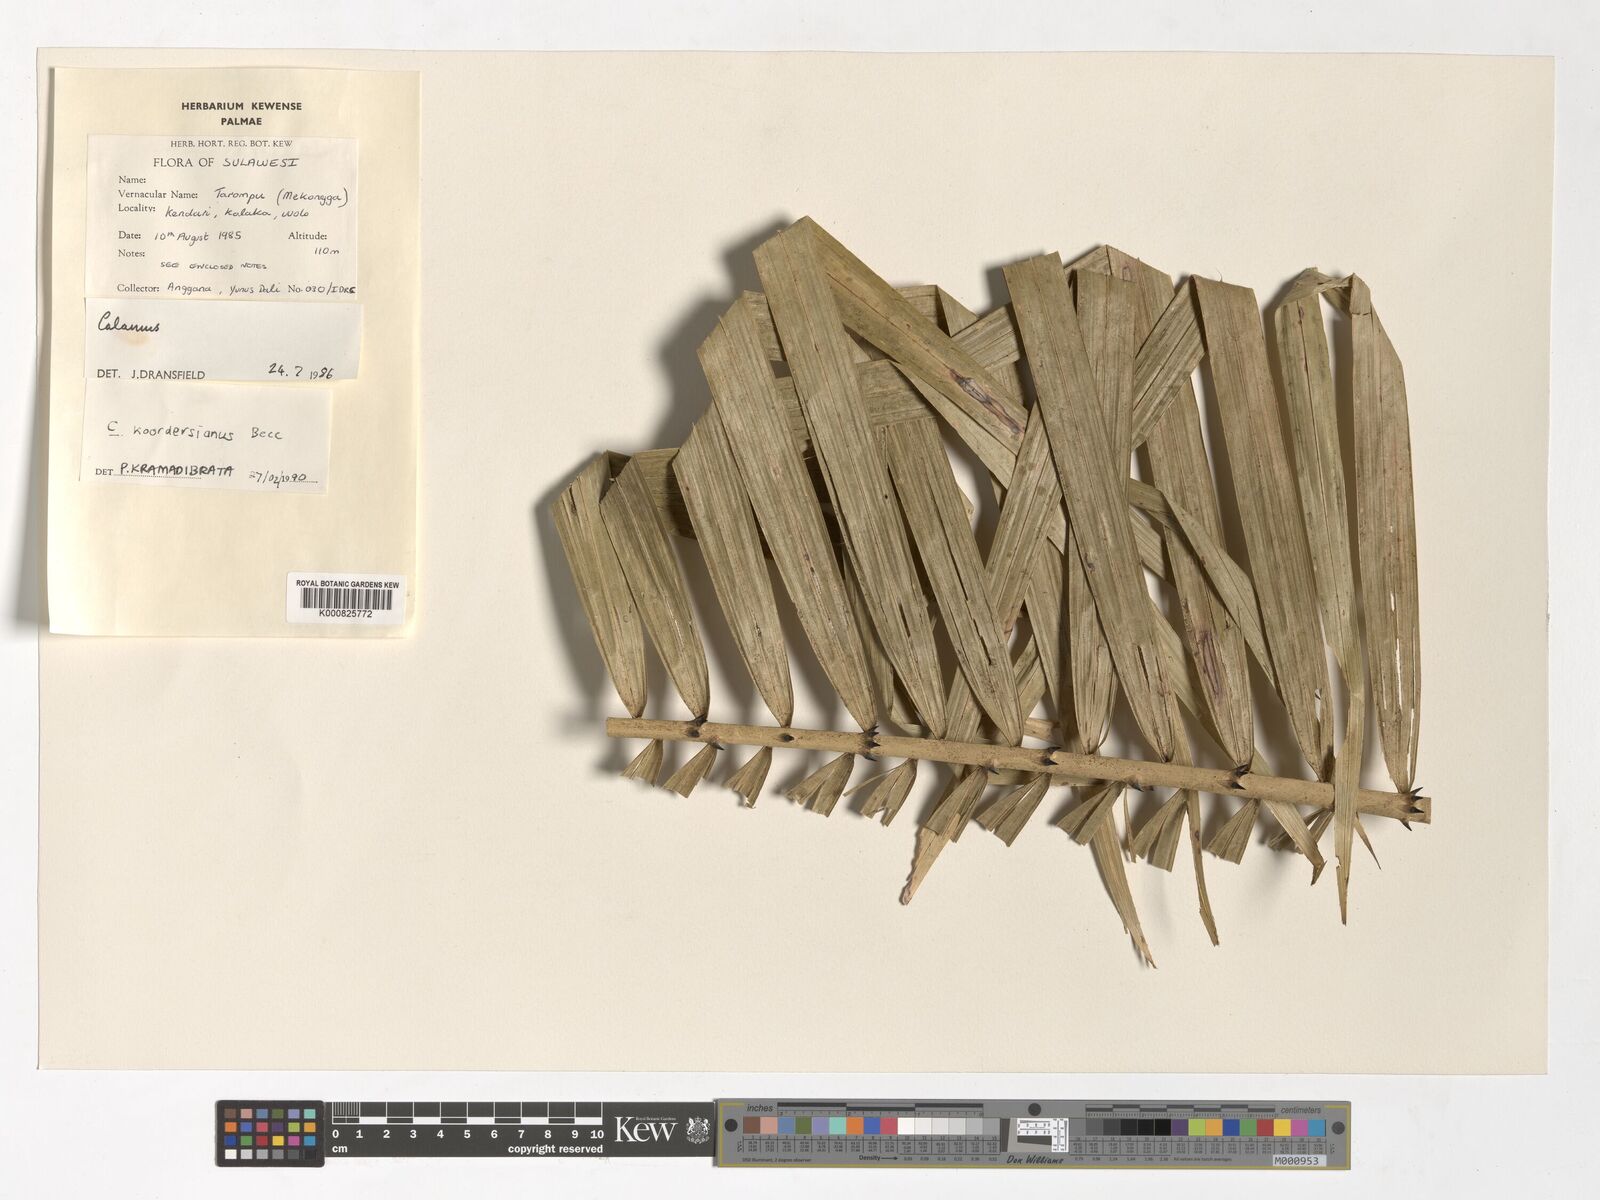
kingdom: Plantae
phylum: Tracheophyta
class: Liliopsida
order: Arecales
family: Arecaceae
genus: Calamus
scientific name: Calamus
